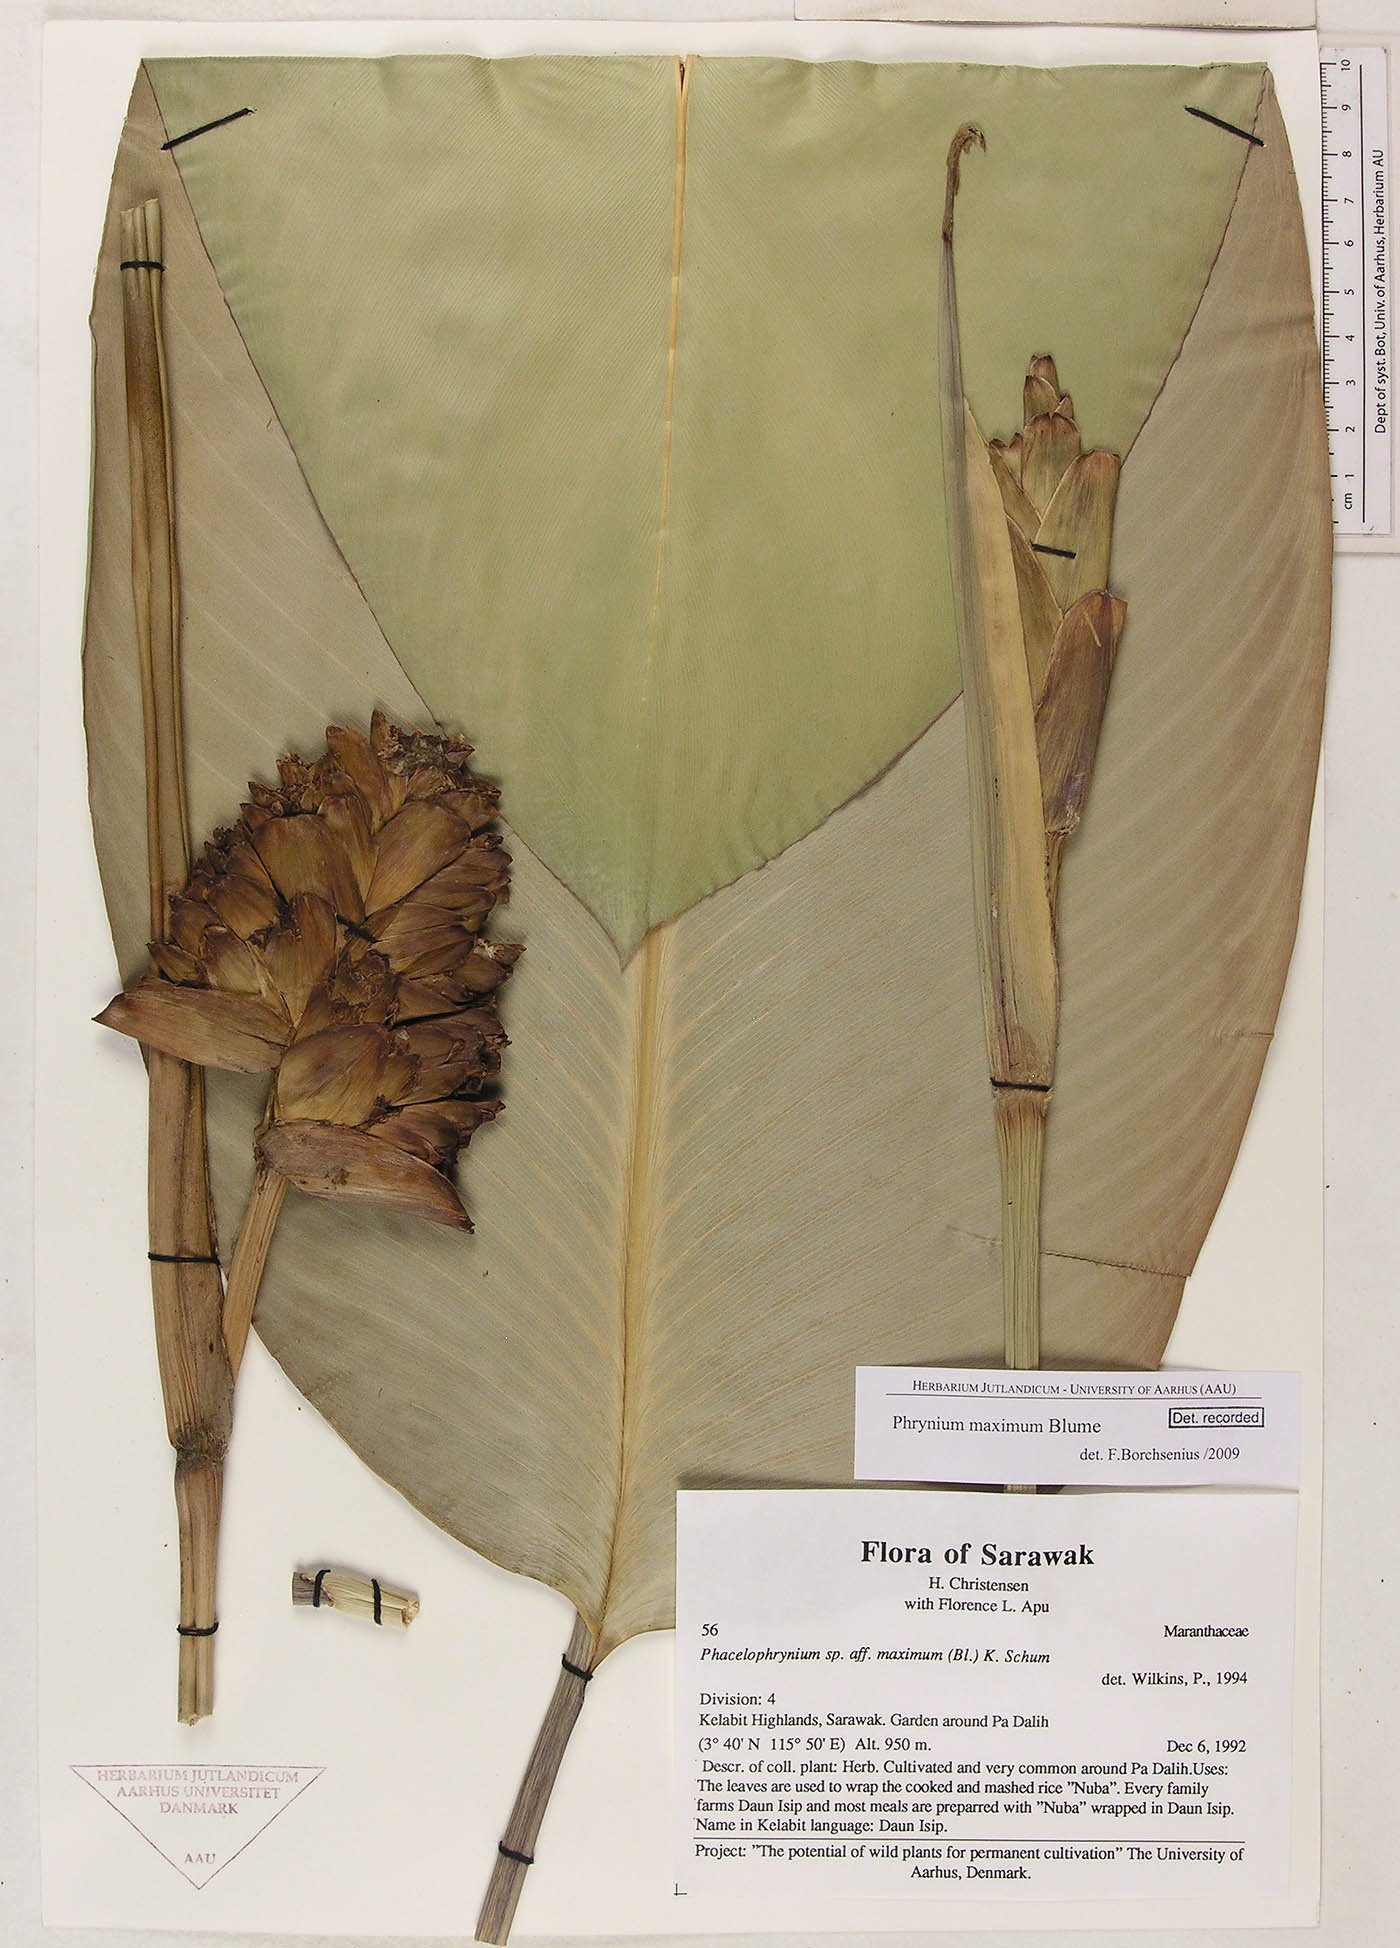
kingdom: Plantae
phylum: Tracheophyta
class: Liliopsida
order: Zingiberales
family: Marantaceae
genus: Phrynium
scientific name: Phrynium maximum
